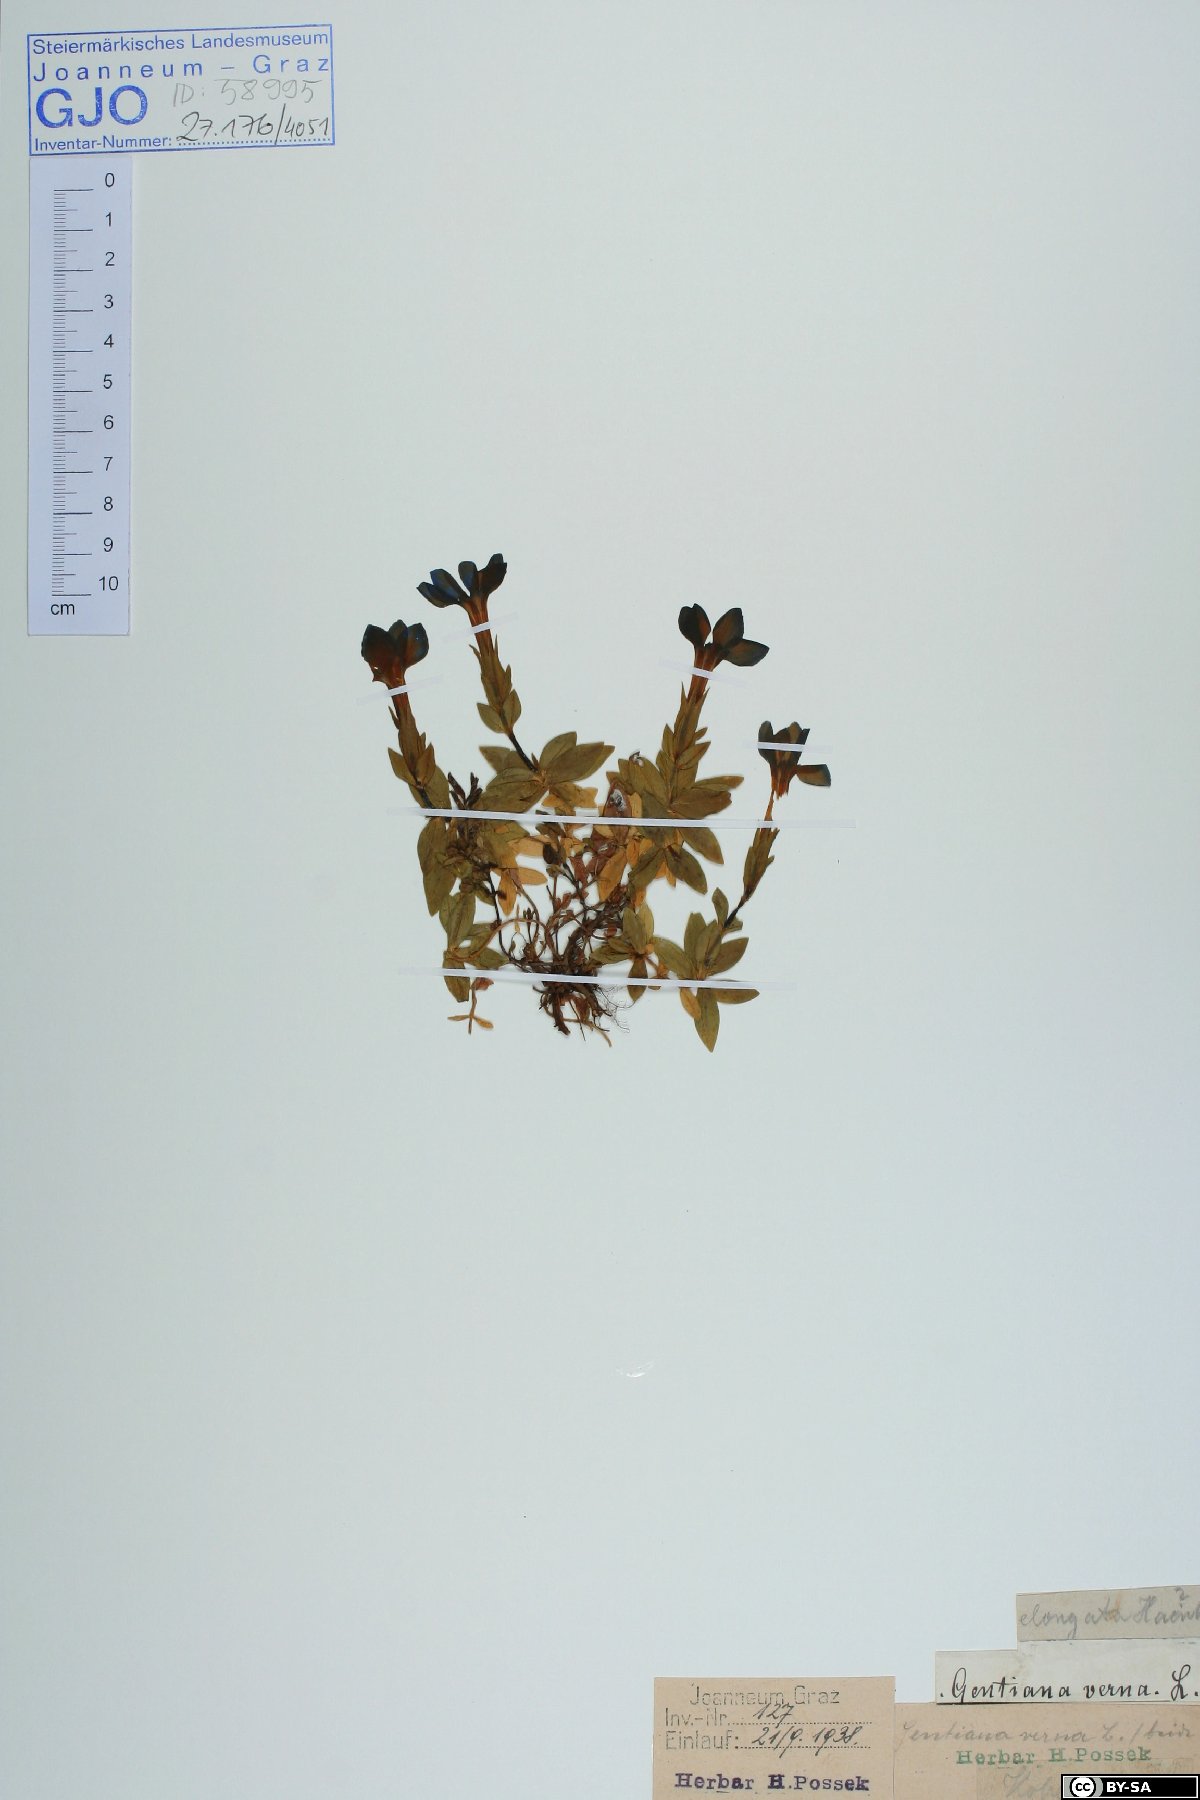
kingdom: Plantae
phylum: Tracheophyta
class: Magnoliopsida
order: Gentianales
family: Gentianaceae
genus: Gentiana
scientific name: Gentiana verna
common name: Spring gentian
